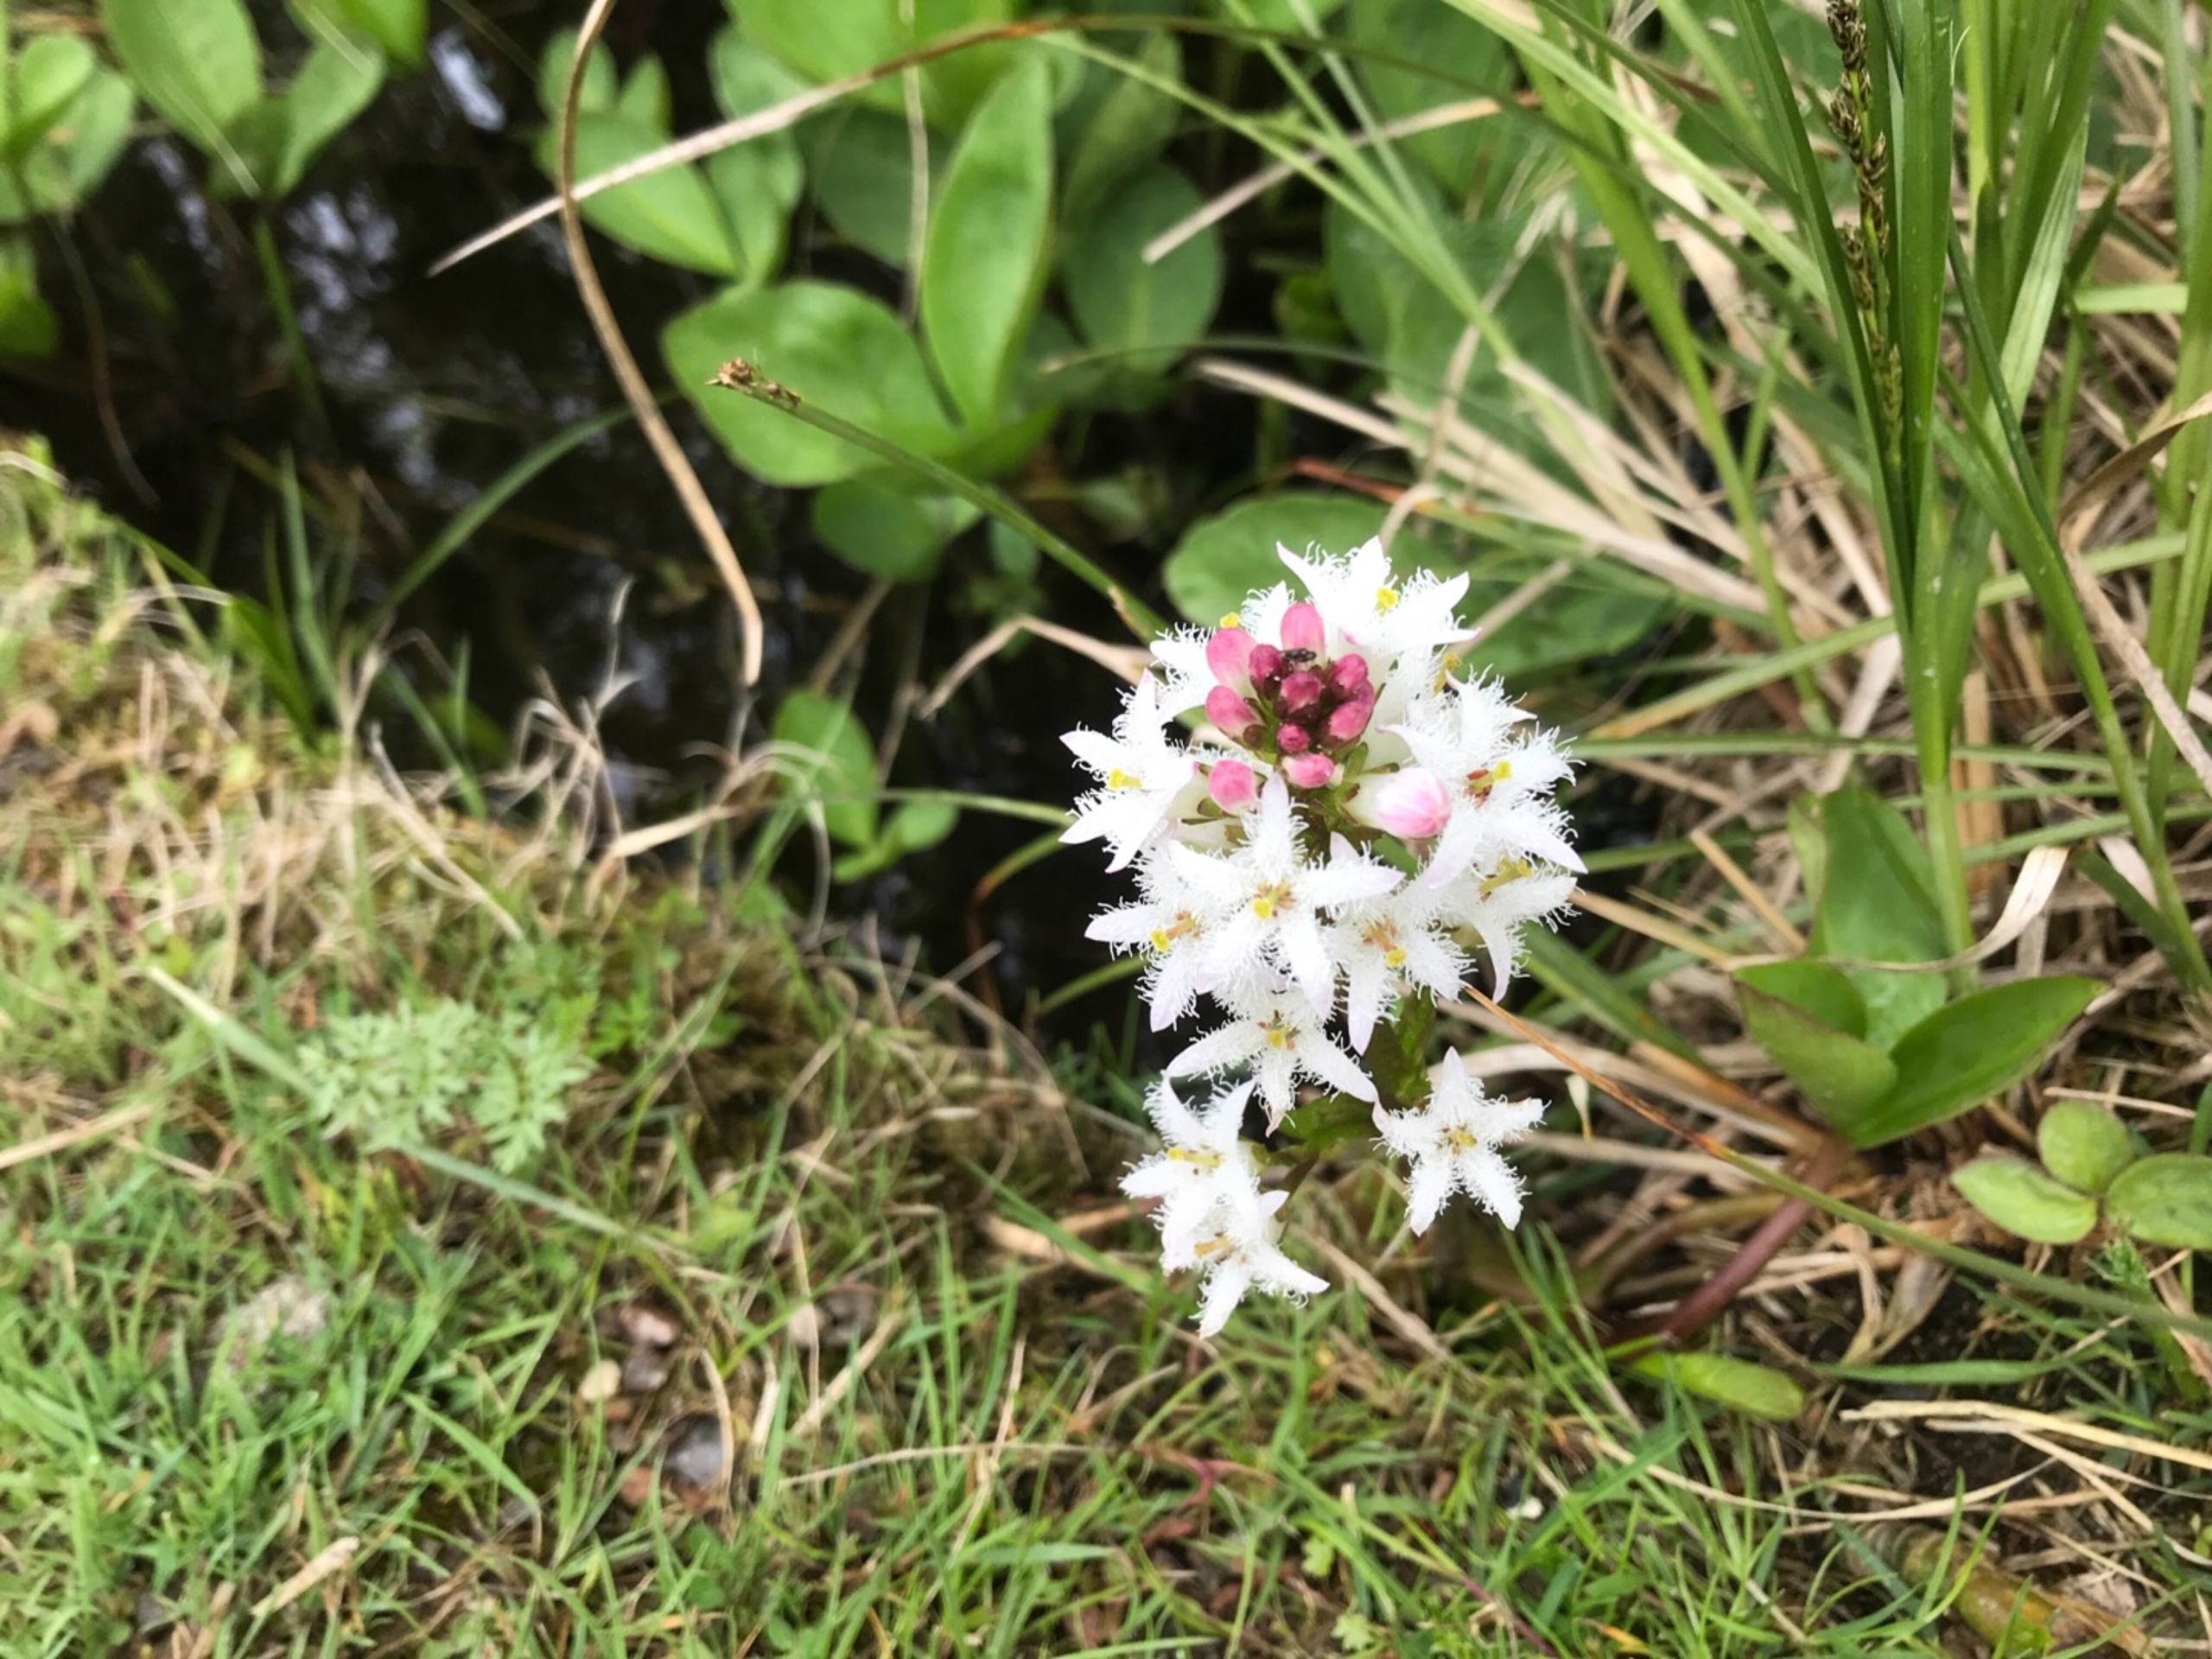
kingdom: Plantae
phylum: Tracheophyta
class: Magnoliopsida
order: Asterales
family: Menyanthaceae
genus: Menyanthes
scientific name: Menyanthes trifoliata
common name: Bukkeblad
